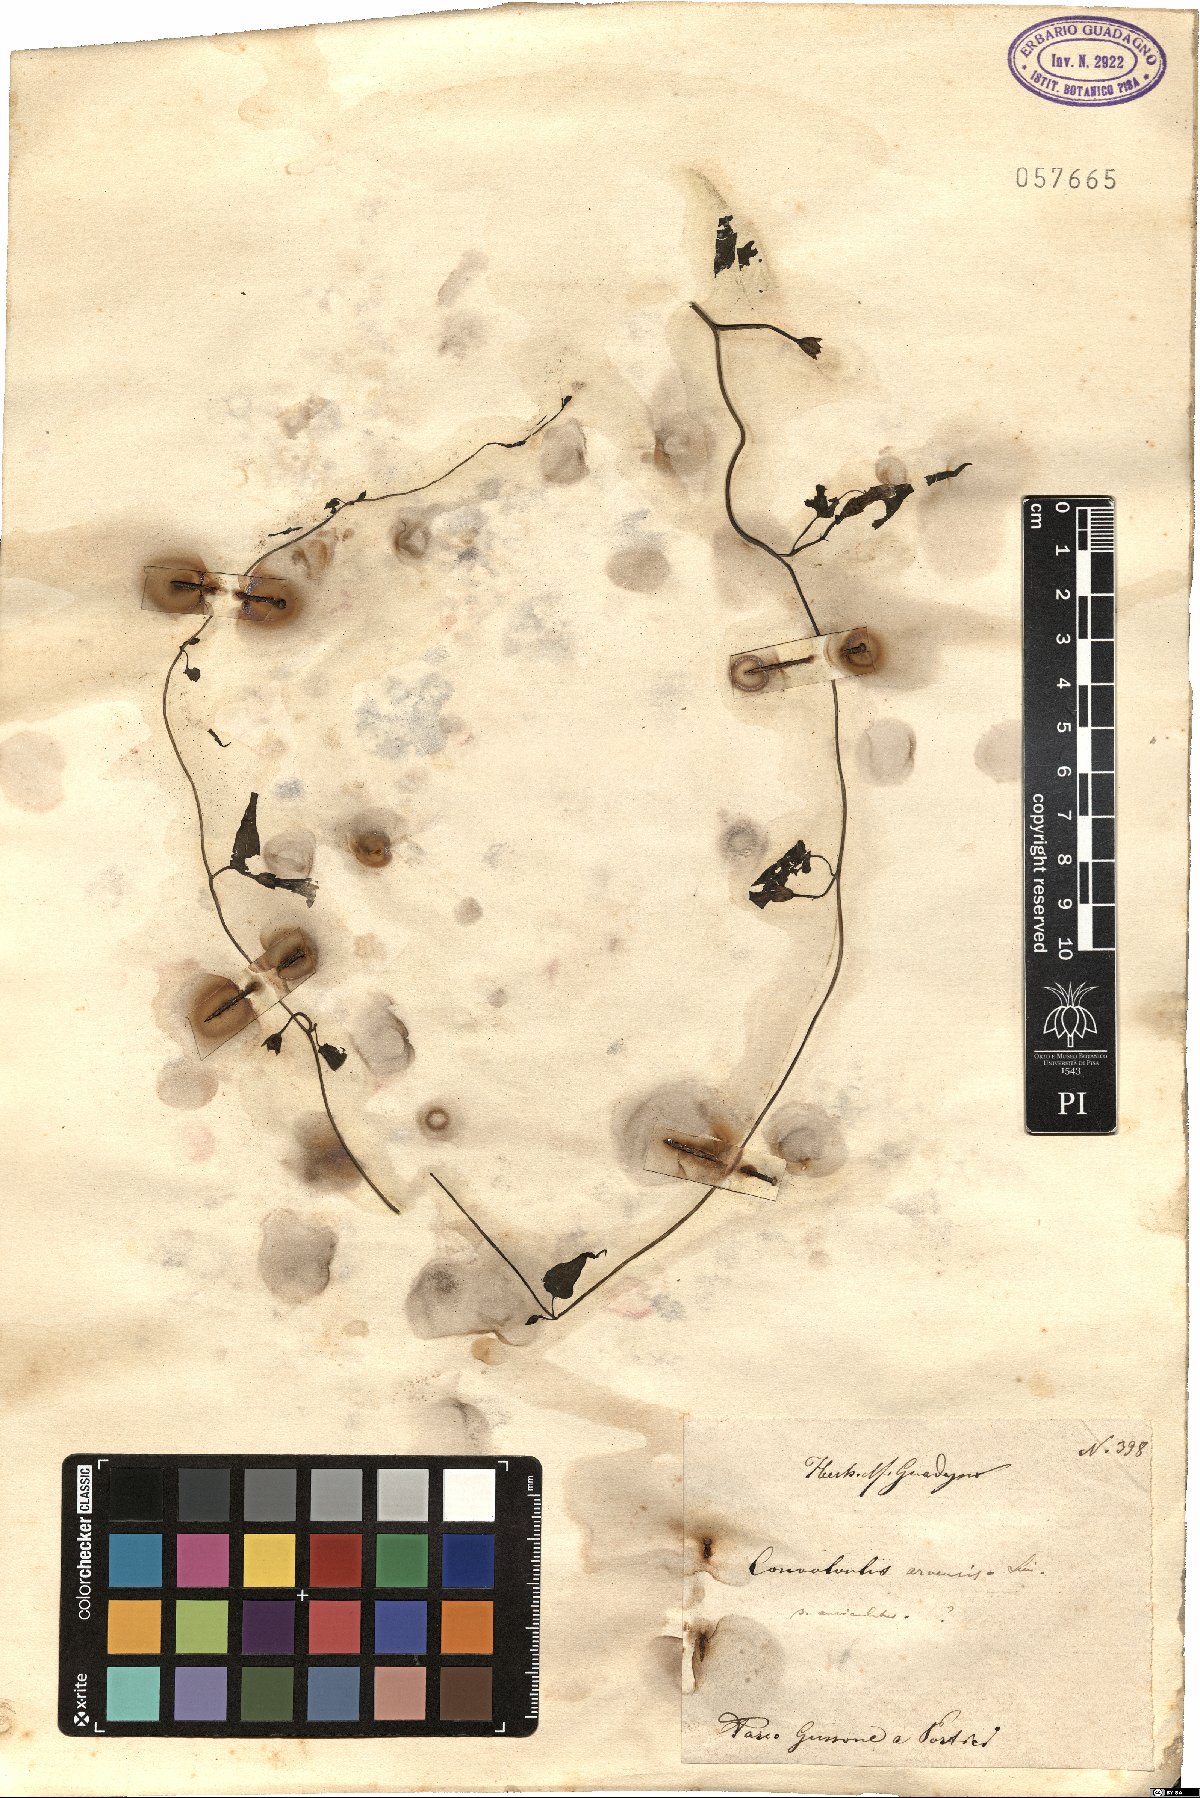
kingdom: Plantae
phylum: Tracheophyta
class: Magnoliopsida
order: Solanales
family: Convolvulaceae
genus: Convolvulus
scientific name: Convolvulus arvensis
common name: Field bindweed
